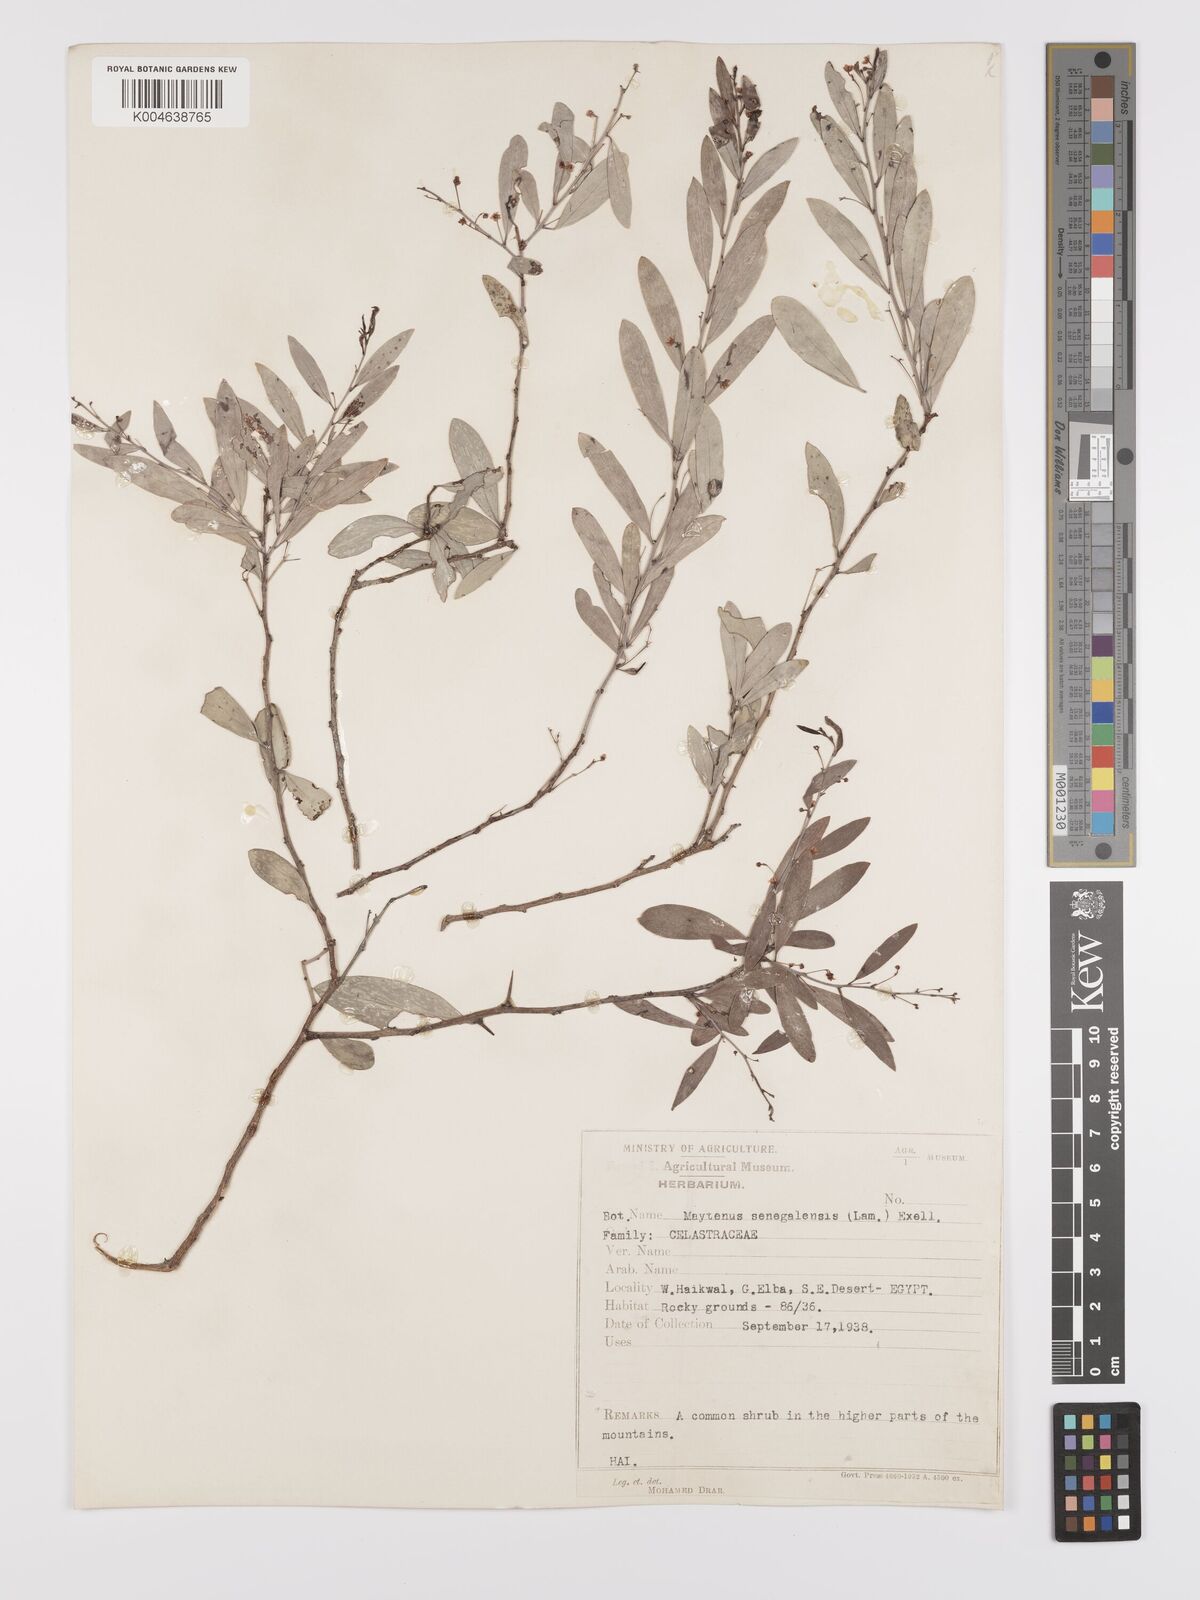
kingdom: Plantae
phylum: Tracheophyta
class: Magnoliopsida
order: Celastrales
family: Celastraceae
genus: Gymnosporia
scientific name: Gymnosporia senegalensis
